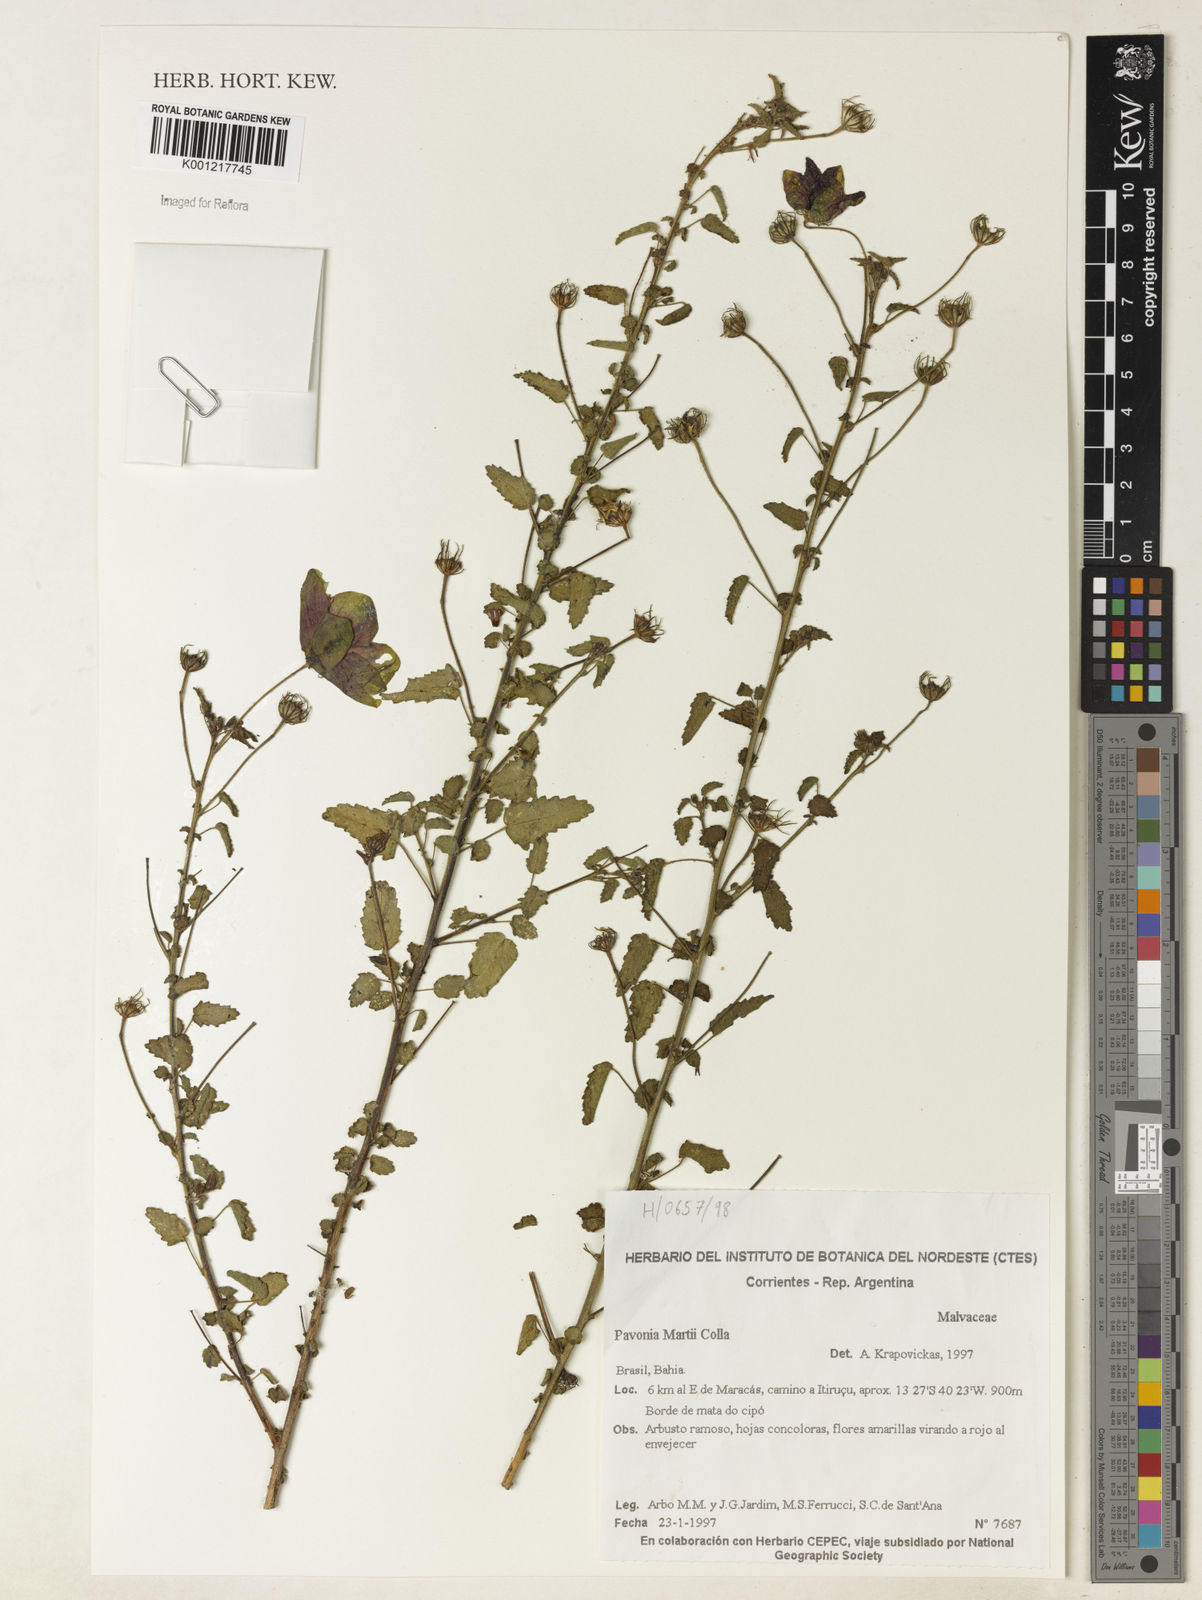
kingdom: Plantae
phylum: Tracheophyta
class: Magnoliopsida
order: Malvales
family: Malvaceae
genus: Pavonia
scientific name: Pavonia martii
